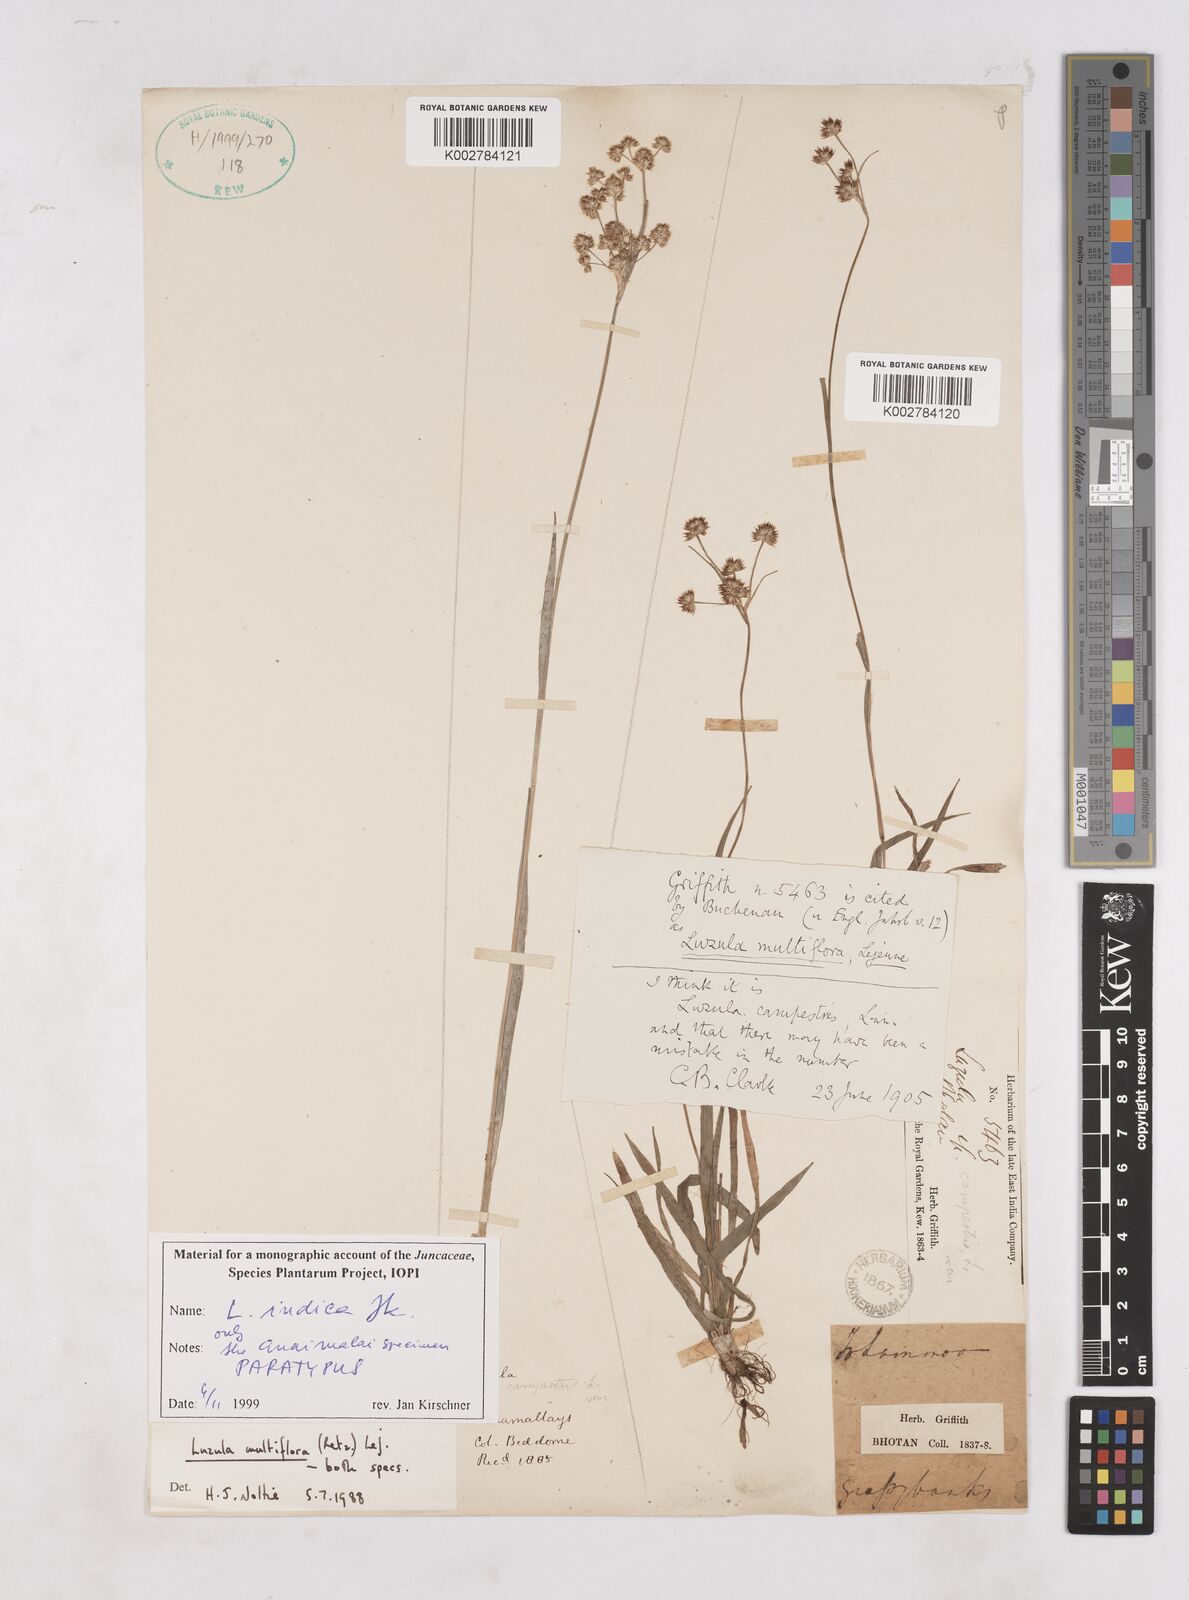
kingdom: Plantae
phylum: Tracheophyta
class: Liliopsida
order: Poales
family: Juncaceae
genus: Luzula
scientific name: Luzula indica
